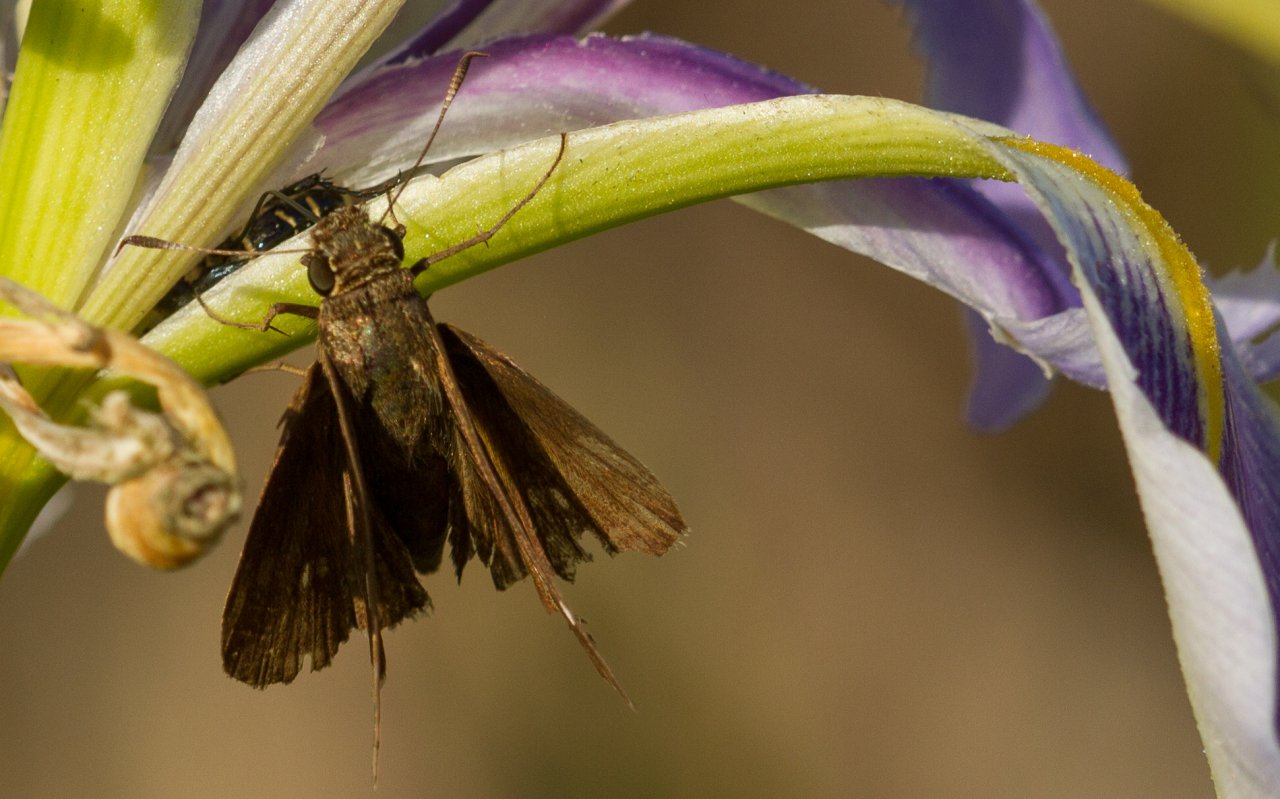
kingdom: Animalia
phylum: Arthropoda
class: Insecta
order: Lepidoptera
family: Hesperiidae
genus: Euphyes
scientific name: Euphyes vestris
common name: Dun Skipper
